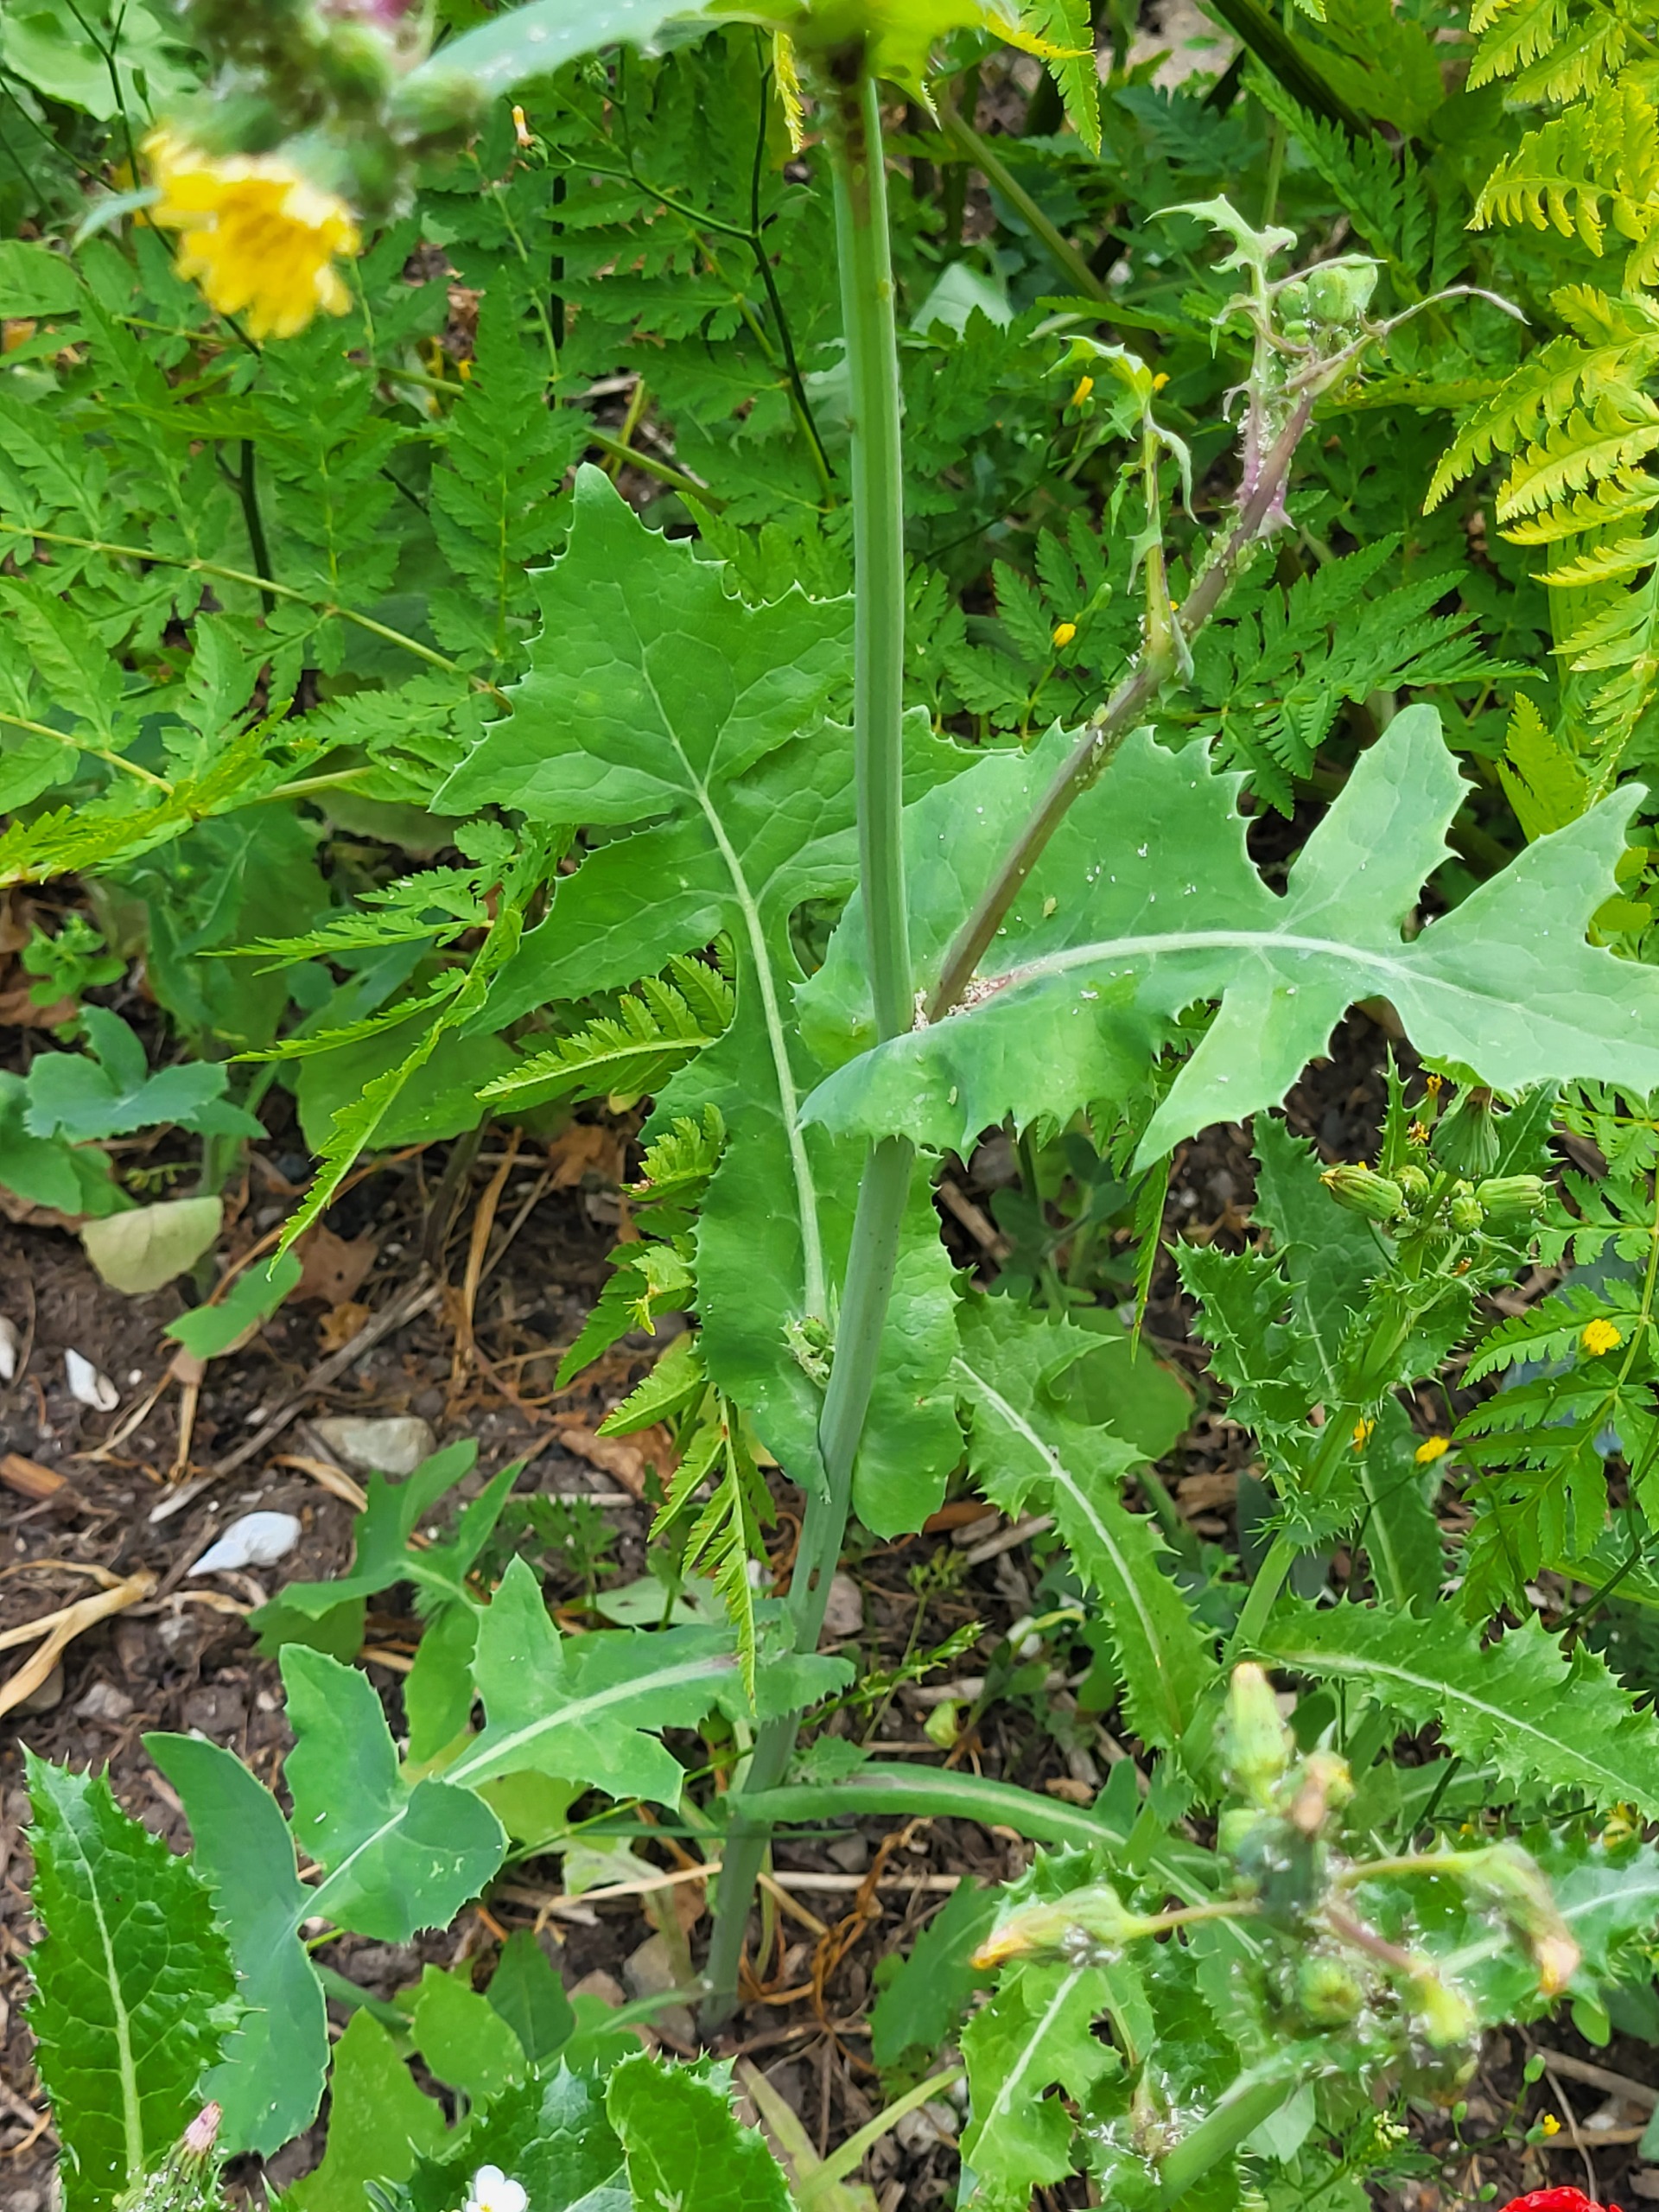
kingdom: Plantae
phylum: Tracheophyta
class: Magnoliopsida
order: Asterales
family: Asteraceae
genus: Sonchus
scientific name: Sonchus oleraceus
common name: Almindelig svinemælk
